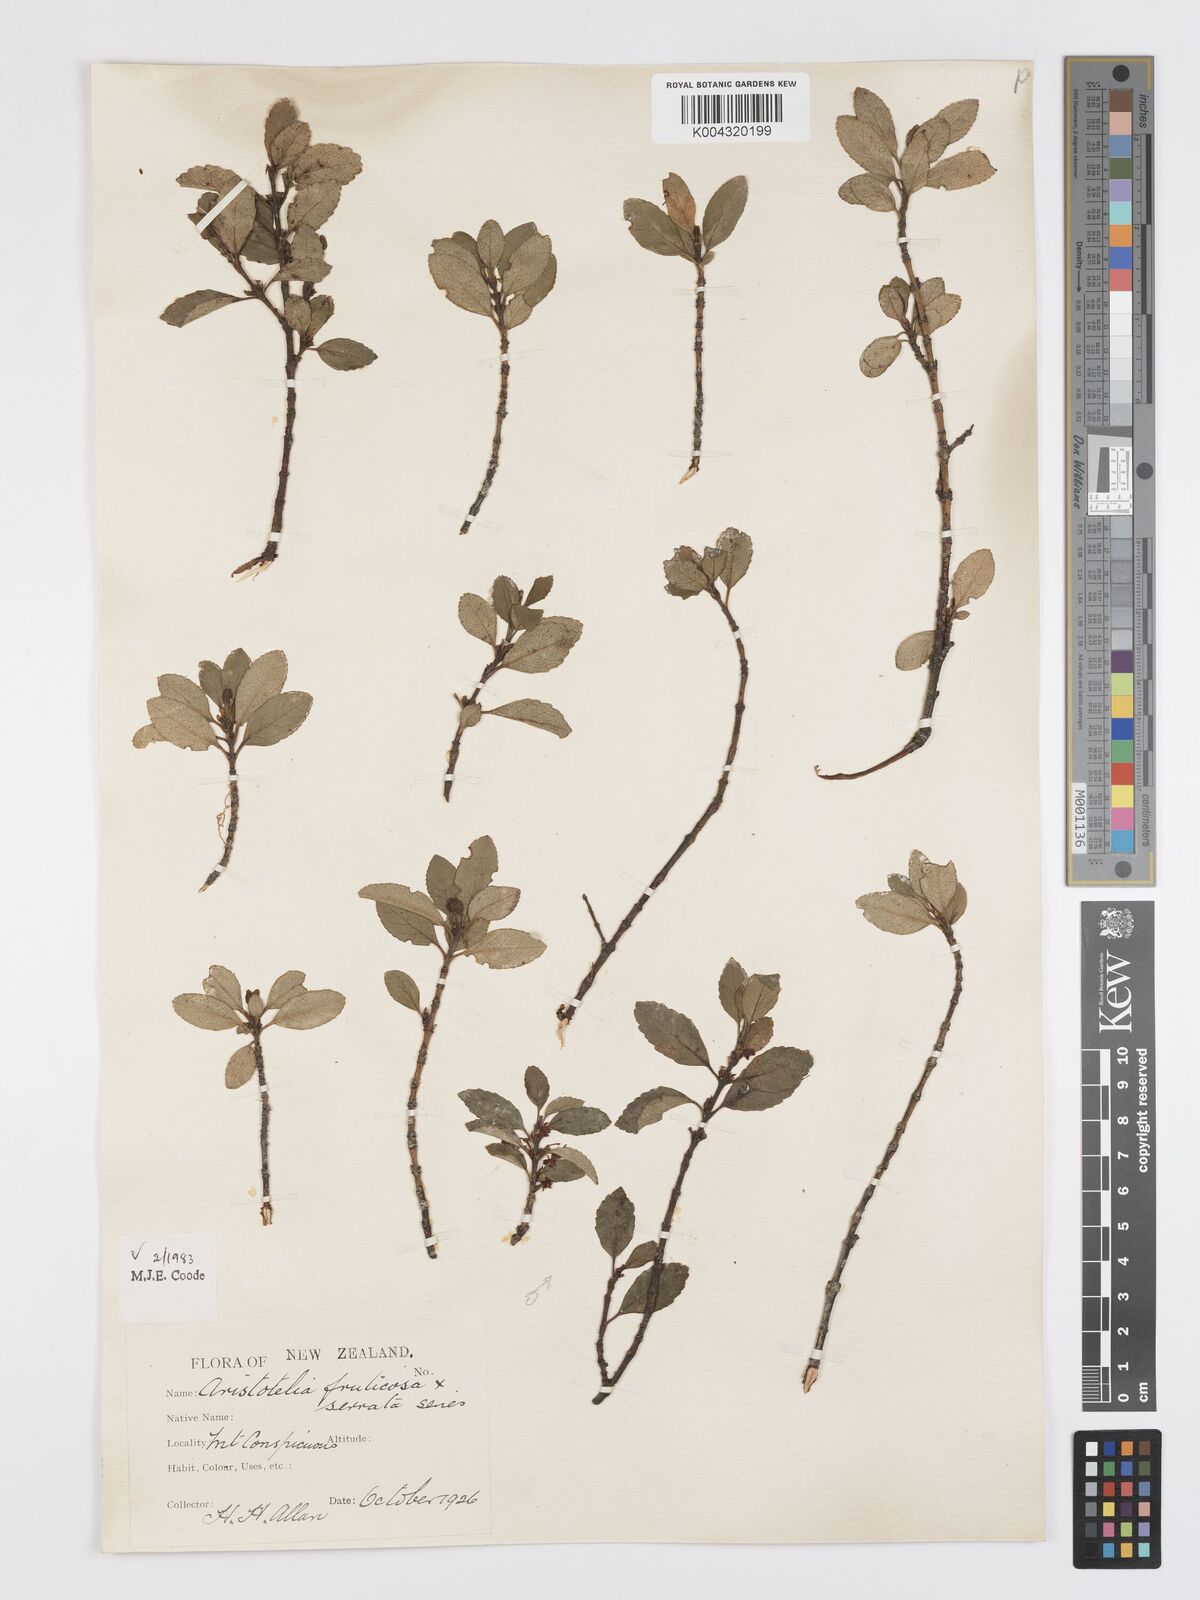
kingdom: Plantae
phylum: Tracheophyta
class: Magnoliopsida
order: Oxalidales
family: Elaeocarpaceae
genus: Aristotelia
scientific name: Aristotelia fruticosa
